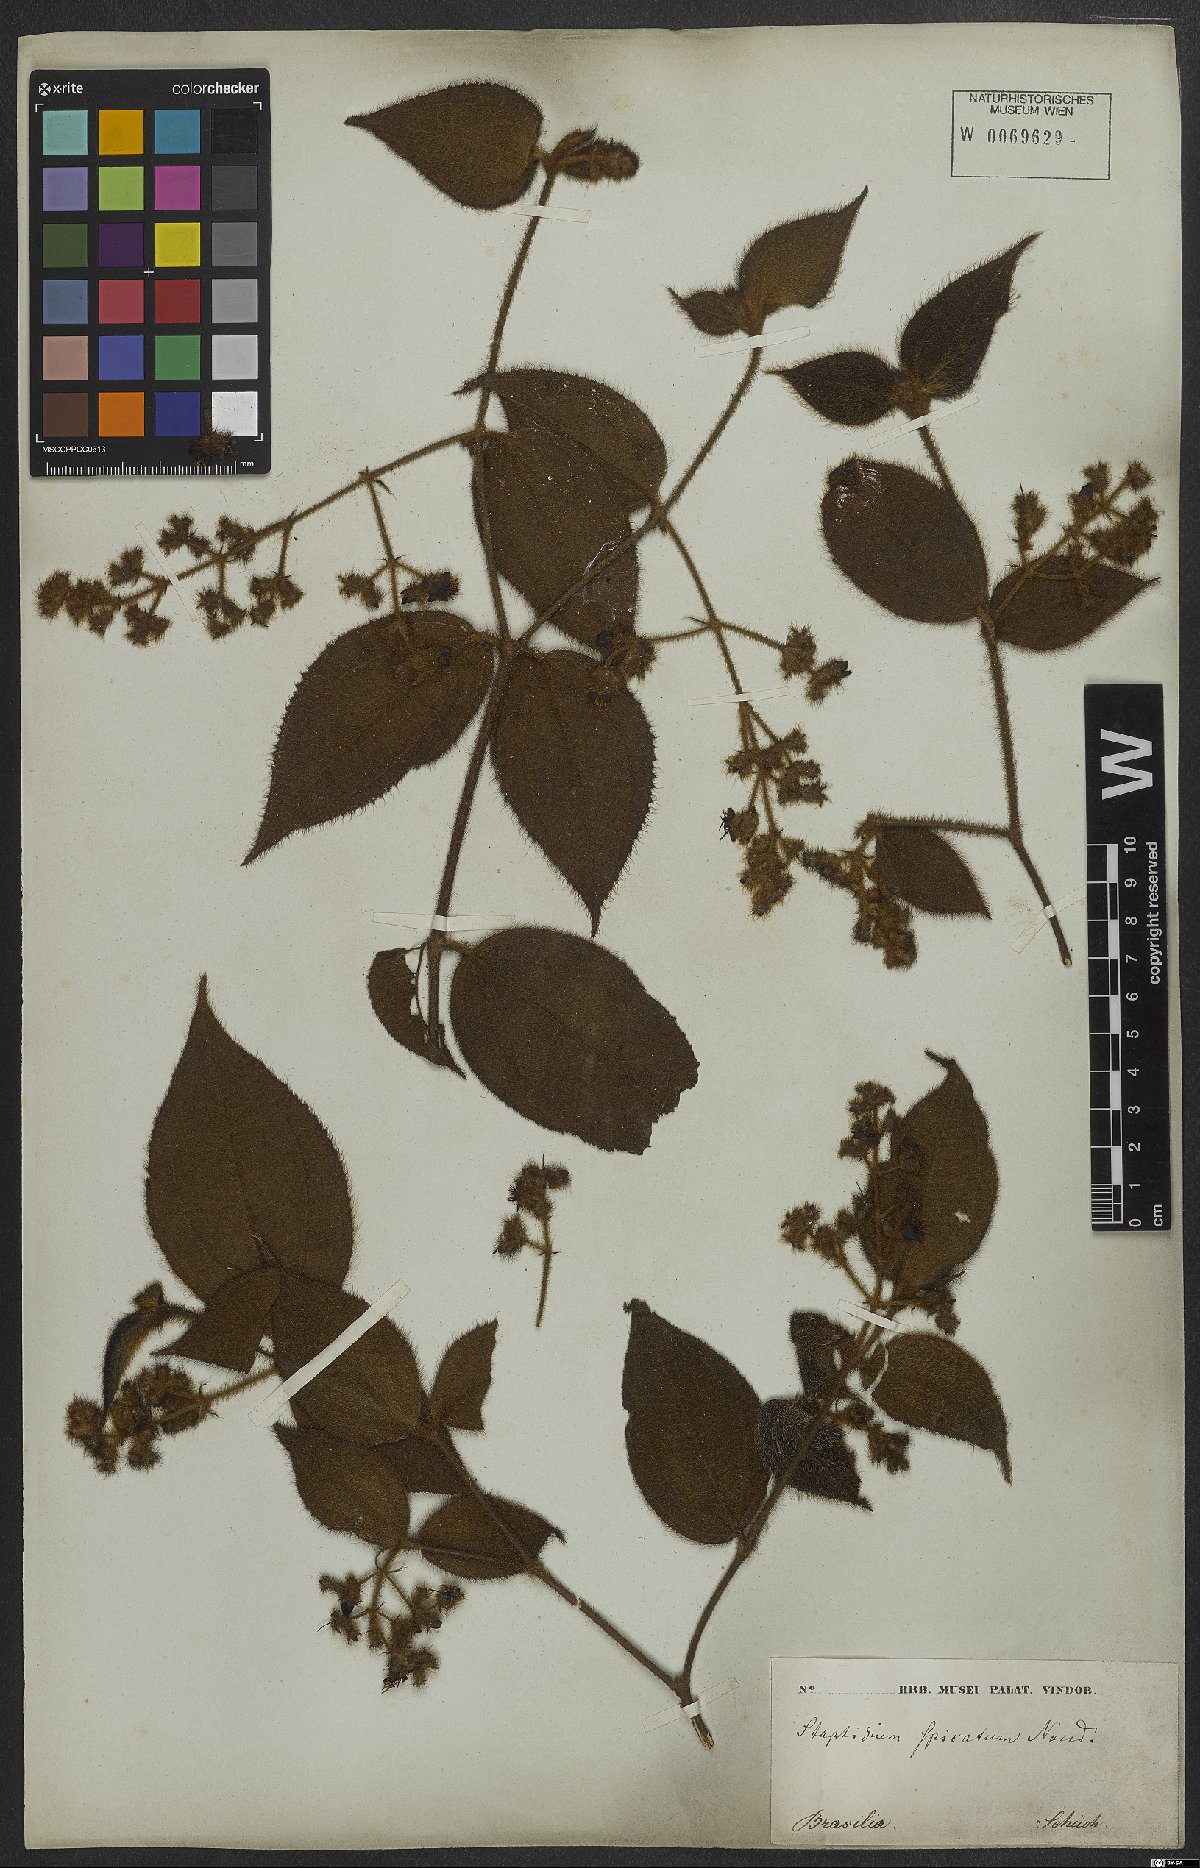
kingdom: Plantae
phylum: Tracheophyta
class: Magnoliopsida
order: Myrtales
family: Melastomataceae
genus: Miconia
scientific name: Miconia dependens
